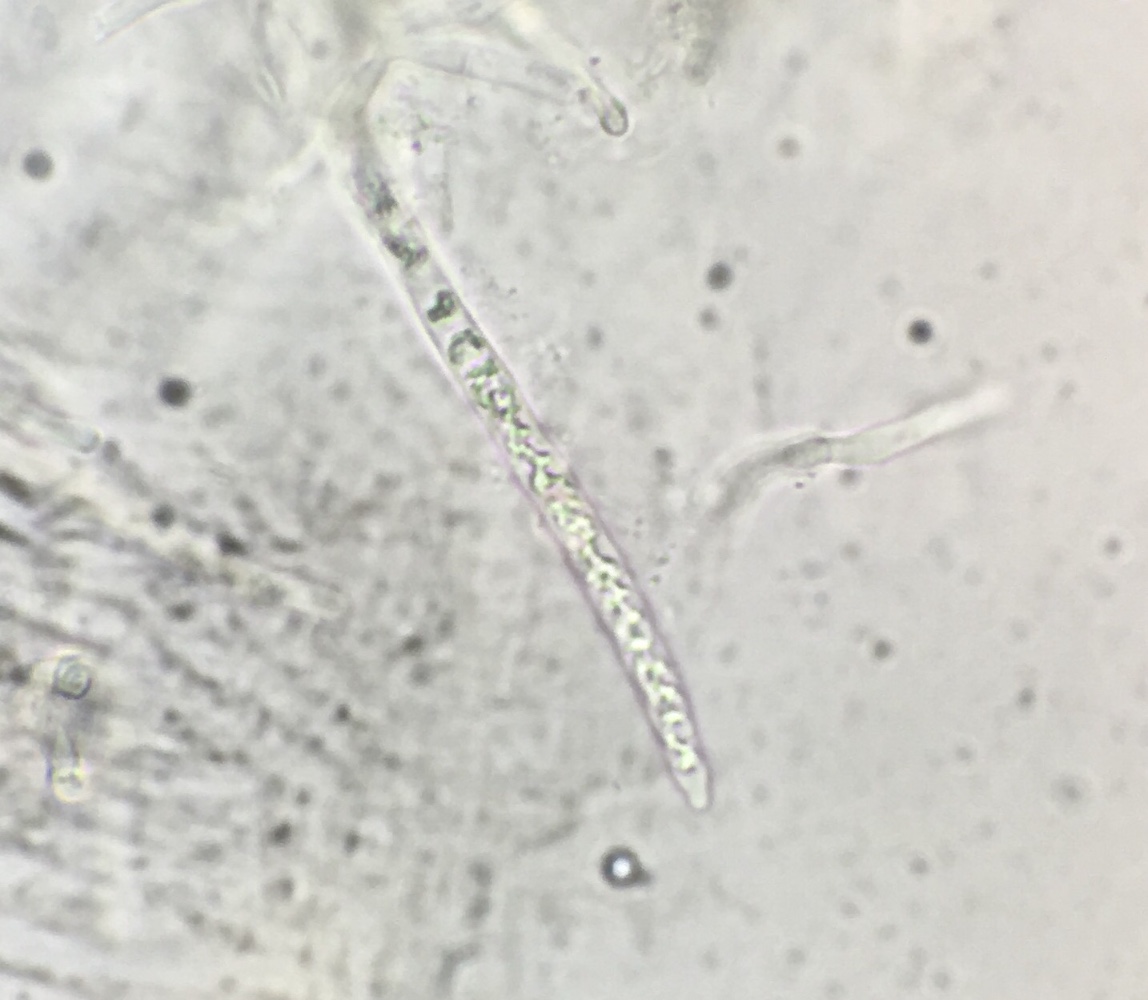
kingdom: Fungi
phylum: Basidiomycota
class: Agaricomycetes
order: Russulales
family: Russulaceae
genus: Russula
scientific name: Russula aeruginea
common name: græsgrøn skørhat
